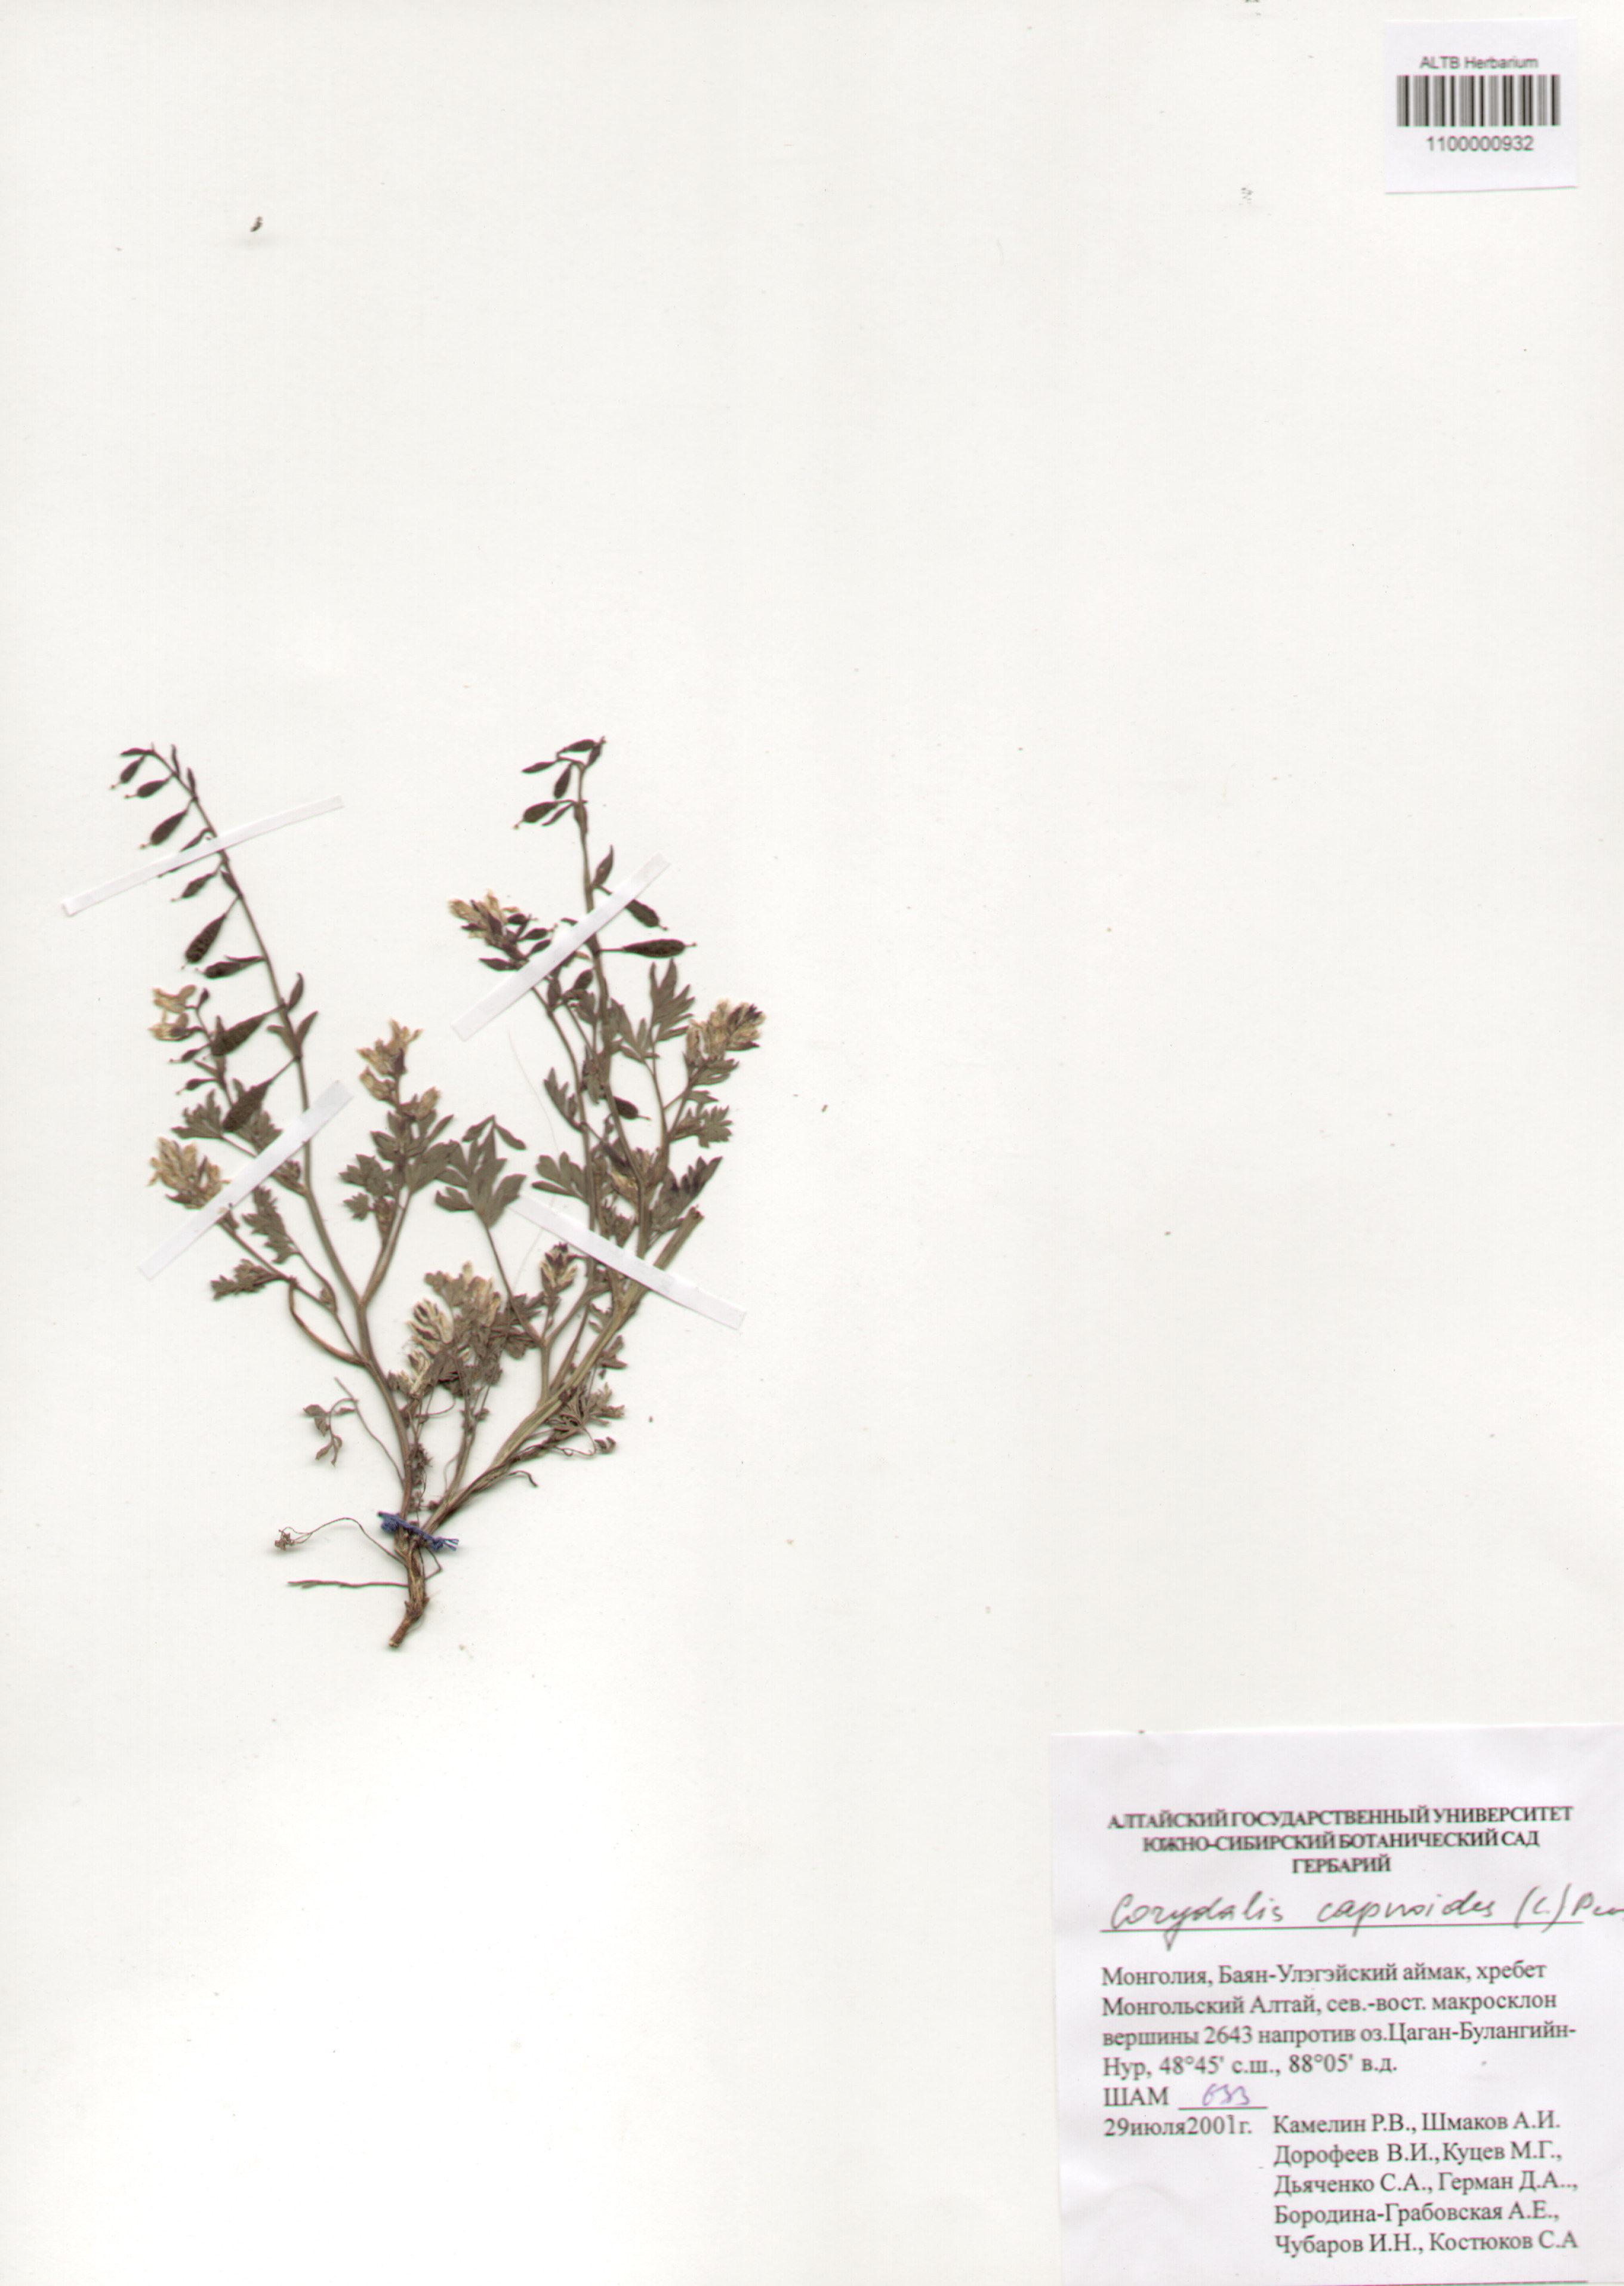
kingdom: Plantae
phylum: Tracheophyta
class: Magnoliopsida
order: Ranunculales
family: Papaveraceae
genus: Corydalis
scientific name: Corydalis capnoides
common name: Beaked corydalis
